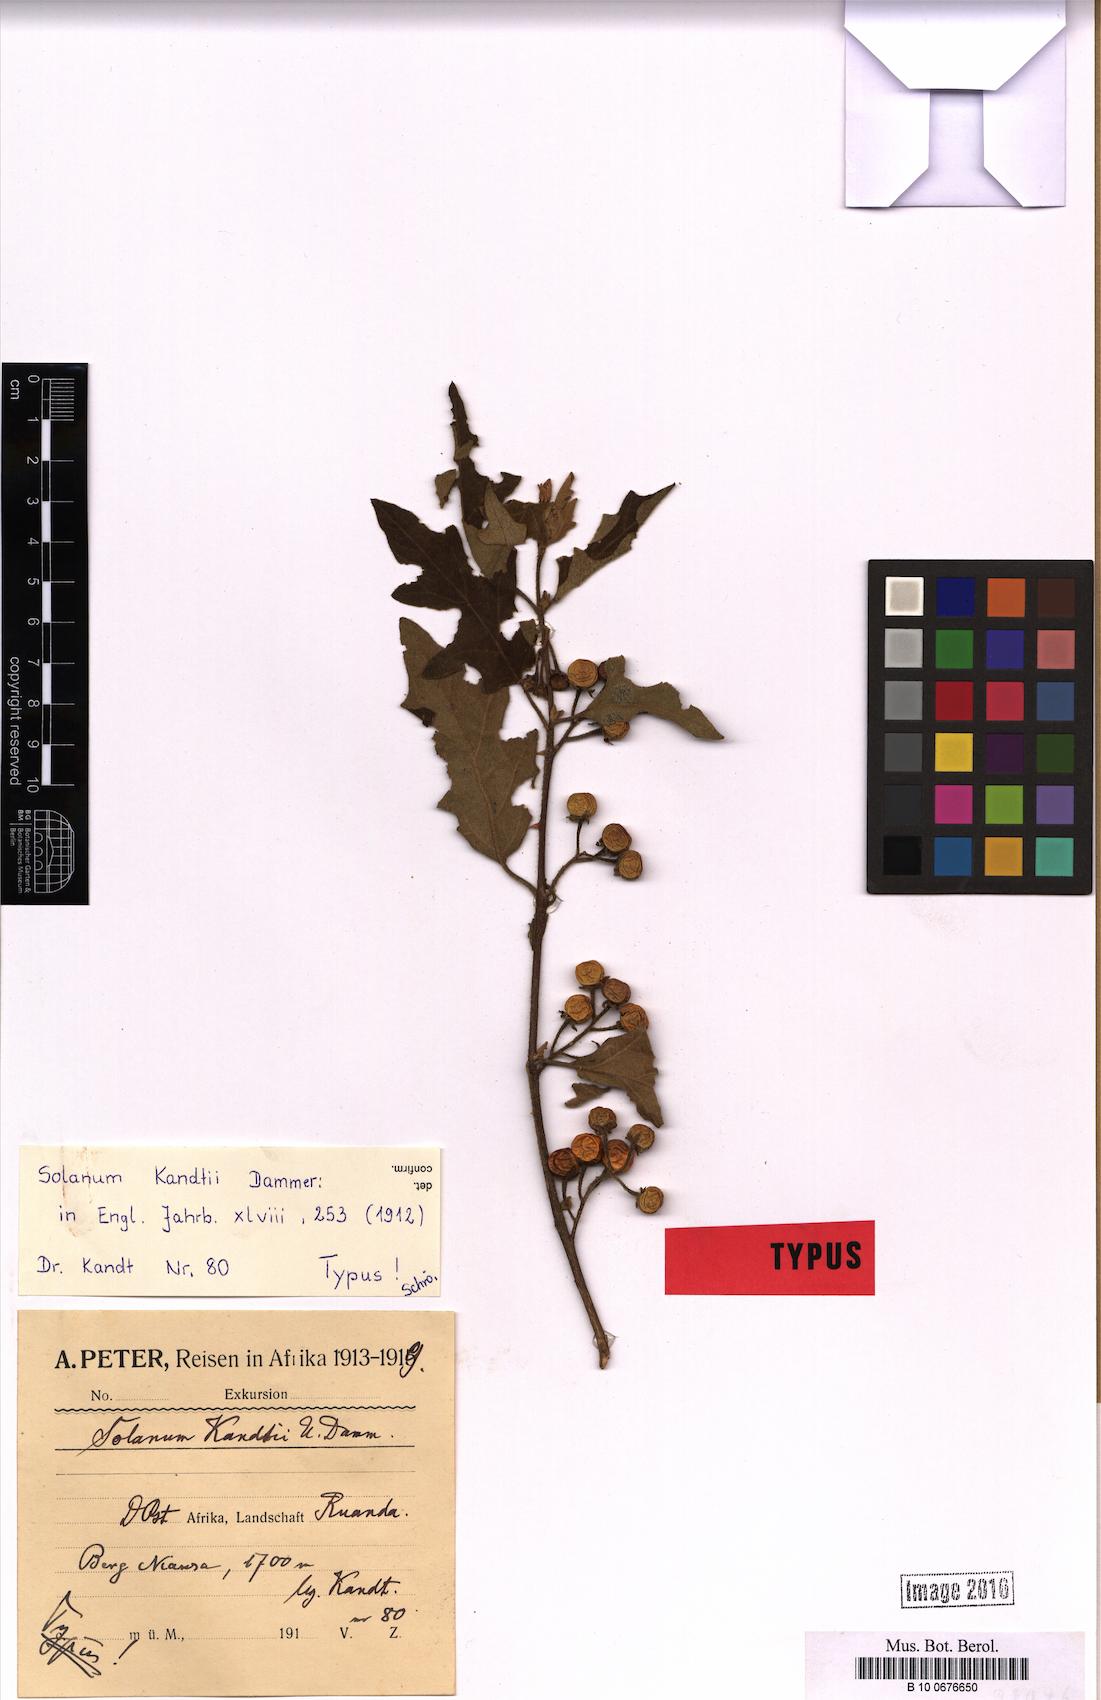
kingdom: Plantae
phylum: Tracheophyta
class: Magnoliopsida
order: Solanales
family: Solanaceae
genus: Solanum
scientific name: Solanum anguivi
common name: Forest bitterberry
